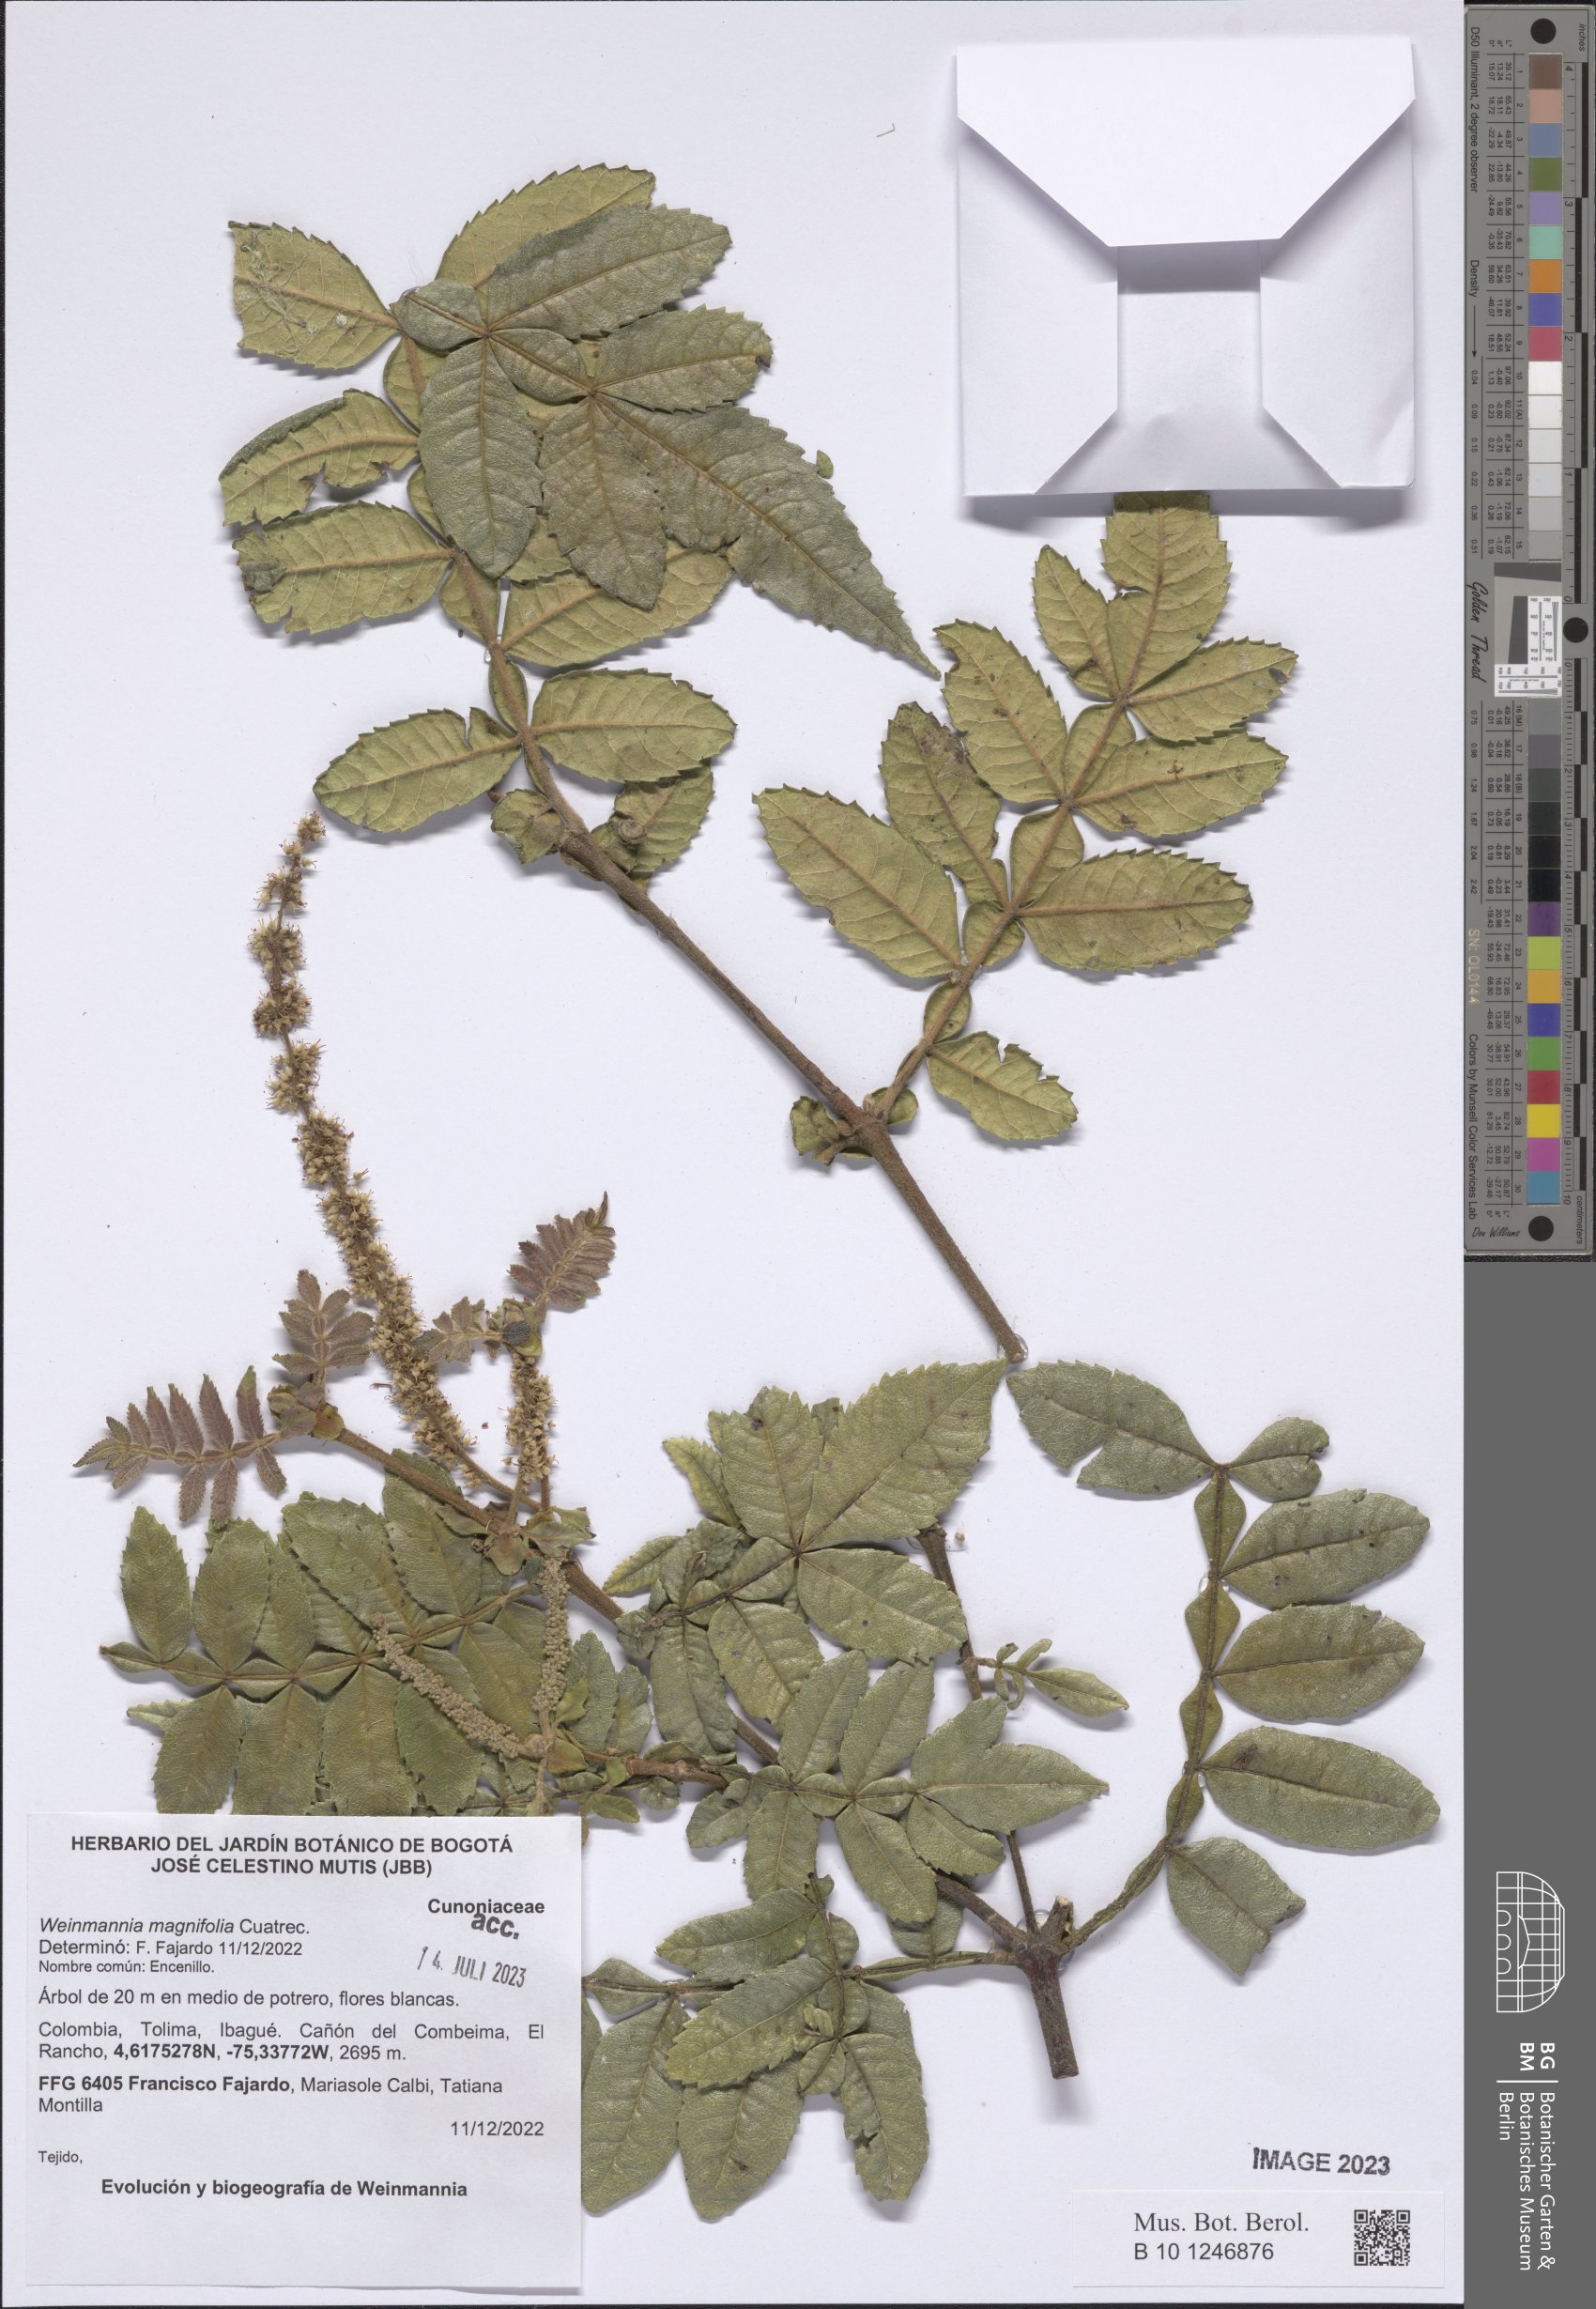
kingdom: Plantae
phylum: Tracheophyta
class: Magnoliopsida
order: Oxalidales
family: Cunoniaceae
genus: Weinmannia
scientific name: Weinmannia magnifolia
